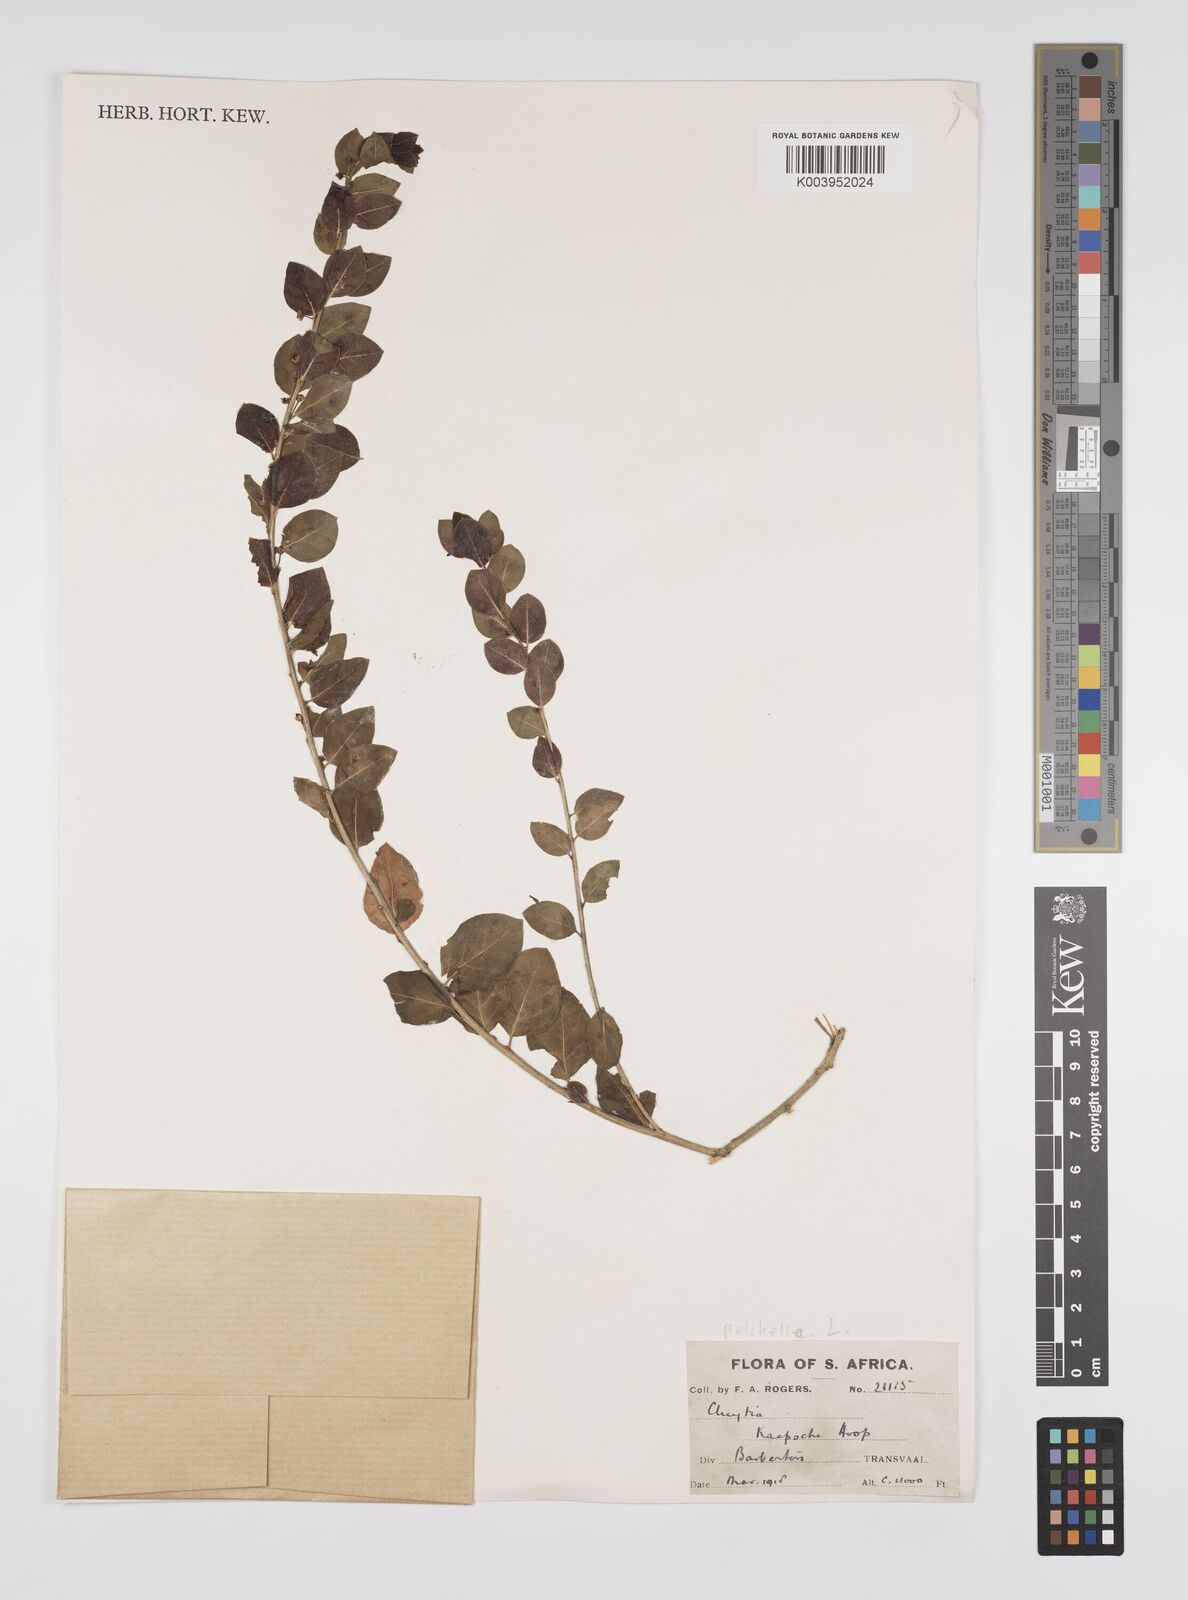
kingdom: Plantae
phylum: Tracheophyta
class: Magnoliopsida
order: Malpighiales
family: Peraceae
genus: Clutia
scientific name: Clutia pulchella
